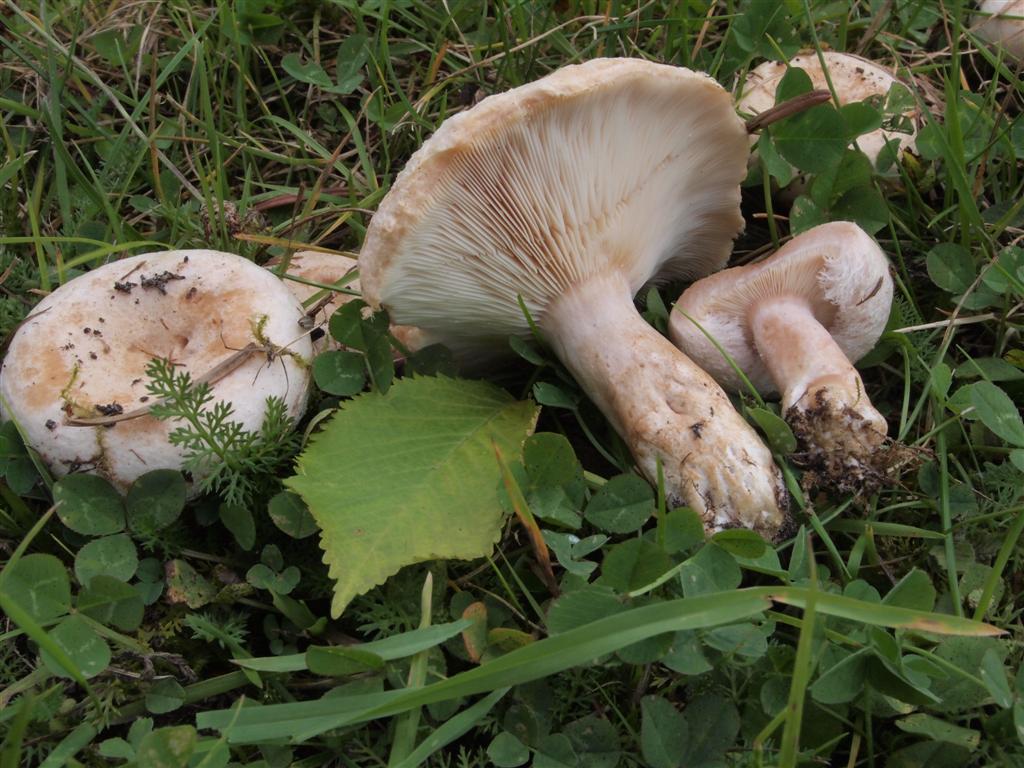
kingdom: Fungi
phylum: Basidiomycota
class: Agaricomycetes
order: Russulales
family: Russulaceae
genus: Lactarius
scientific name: Lactarius pubescens
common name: dunet mælkehat
